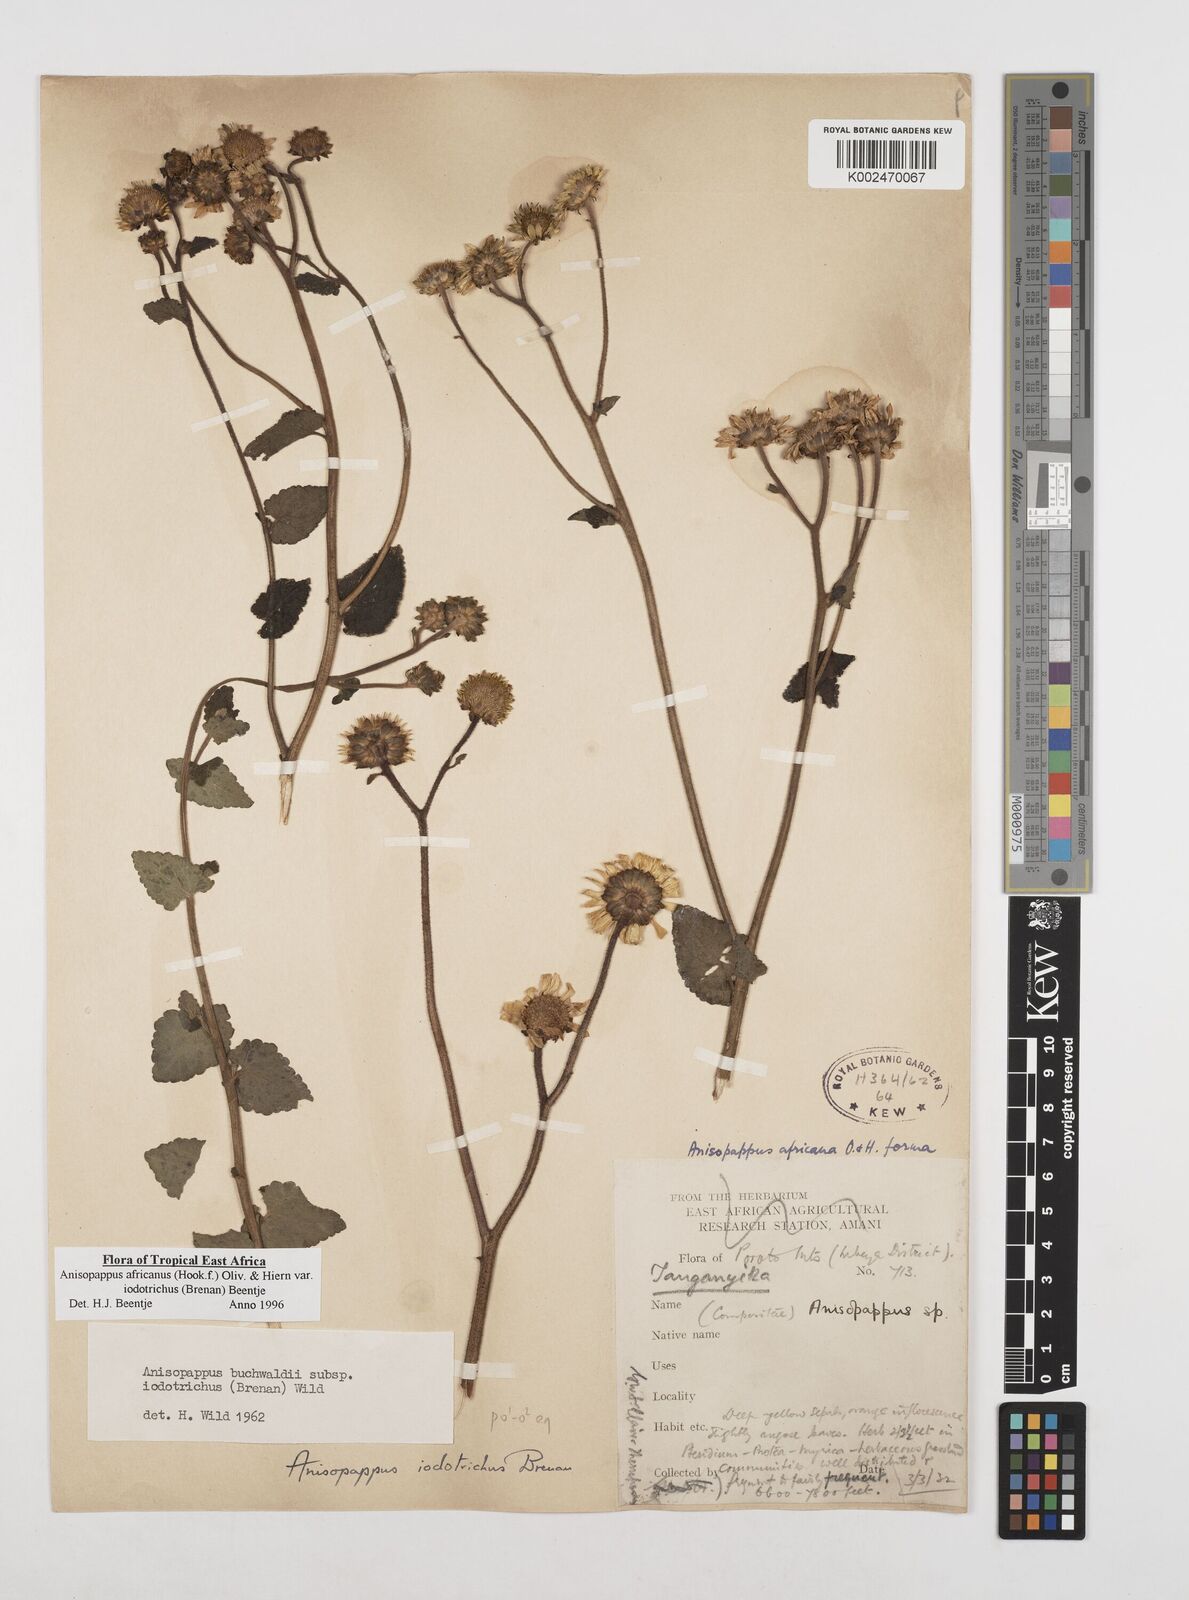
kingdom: Plantae
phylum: Tracheophyta
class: Magnoliopsida
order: Asterales
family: Asteraceae
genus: Anisopappus
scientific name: Anisopappus buchwaldii
